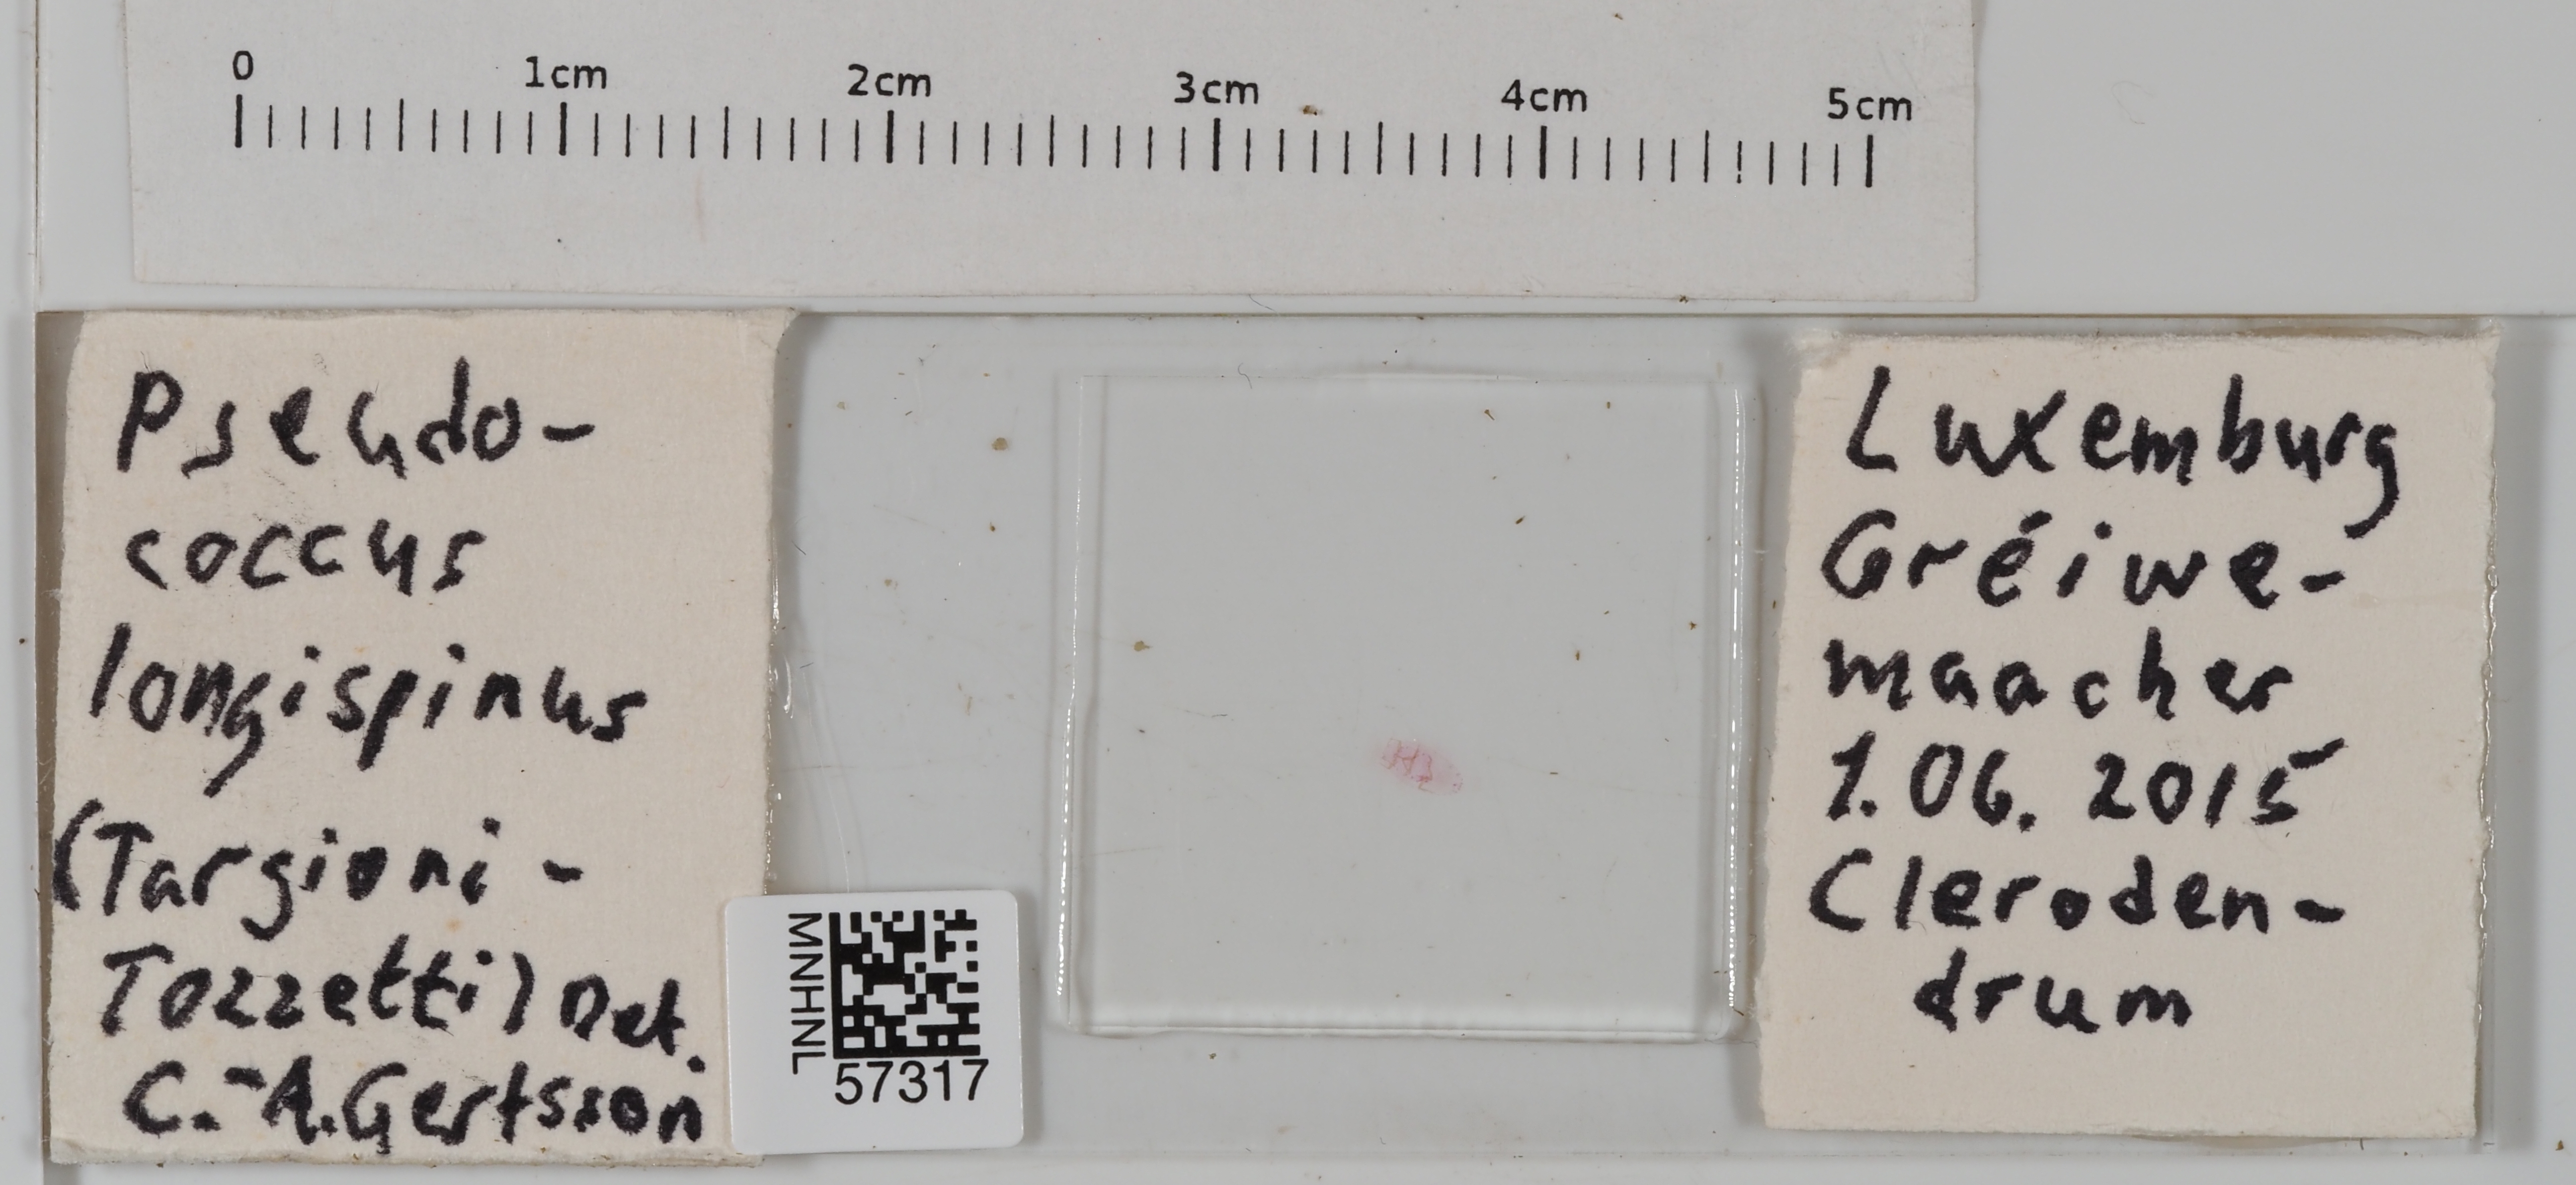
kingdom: Animalia
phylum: Arthropoda
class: Insecta
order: Hemiptera
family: Pseudococcidae
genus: Pseudococcus
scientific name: Pseudococcus longispinus
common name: Long-tailed mealybug
